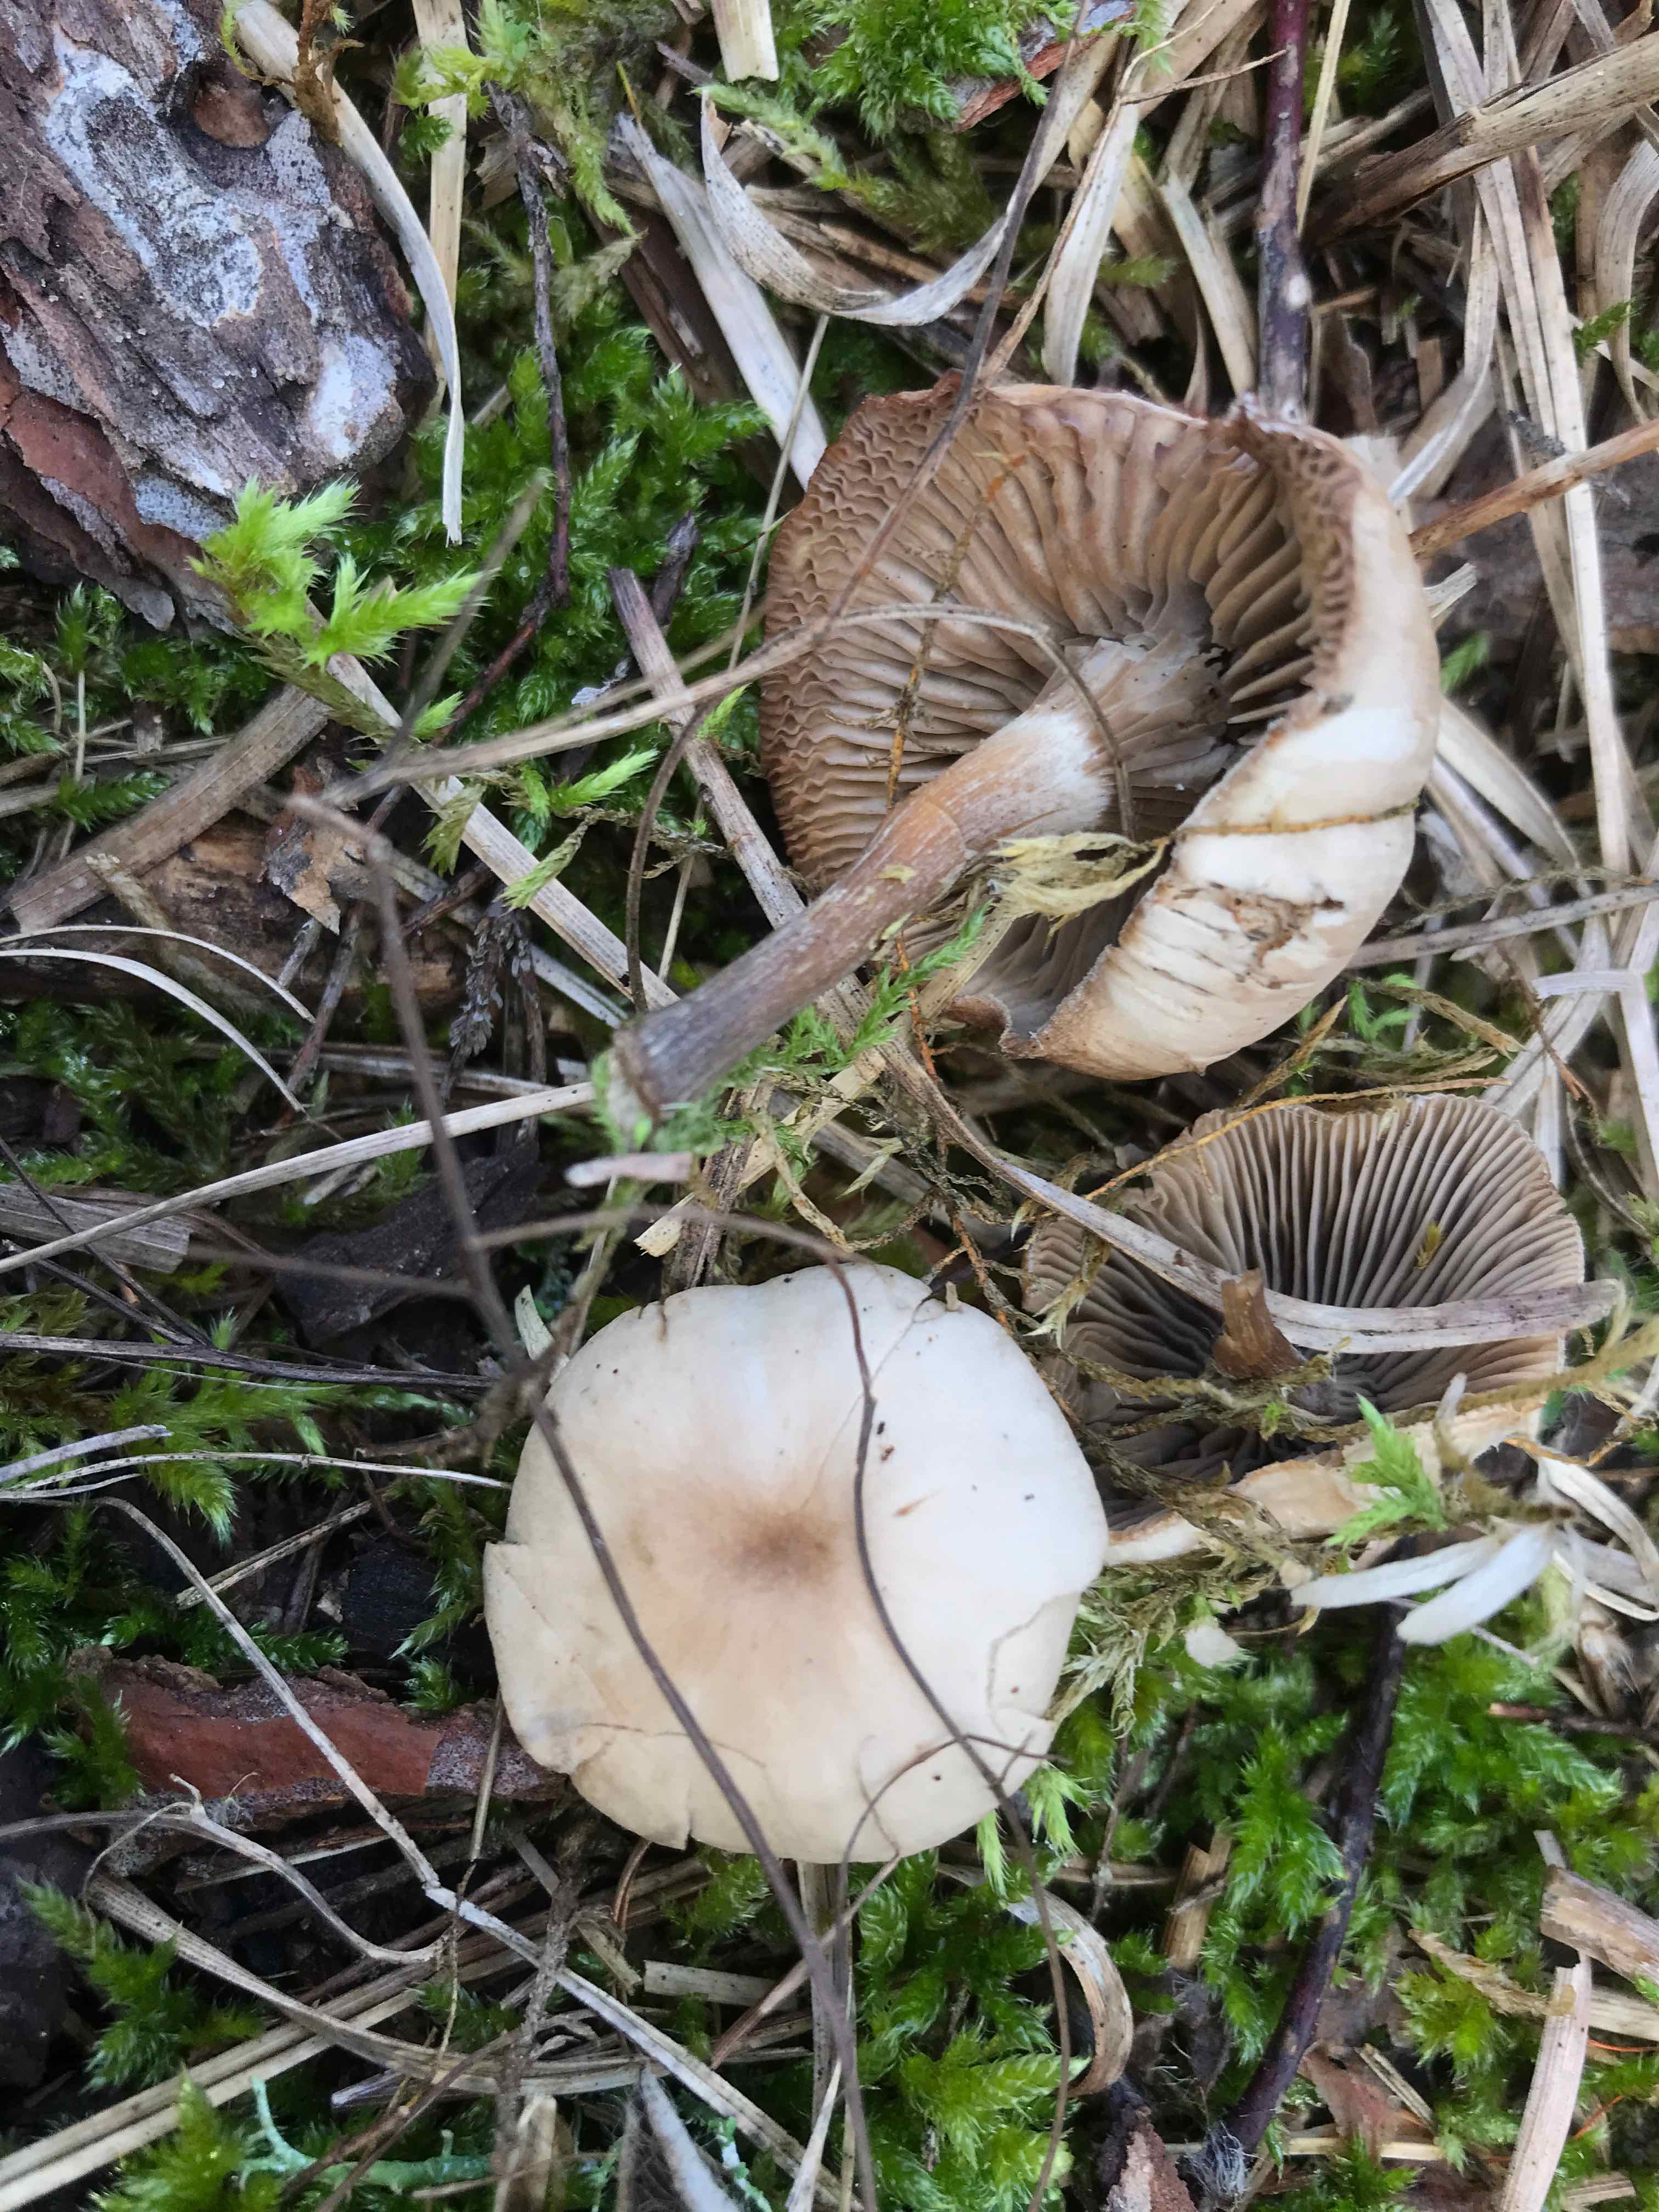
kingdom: Fungi
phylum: Basidiomycota
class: Agaricomycetes
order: Agaricales
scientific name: Agaricales
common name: champignonordenen
